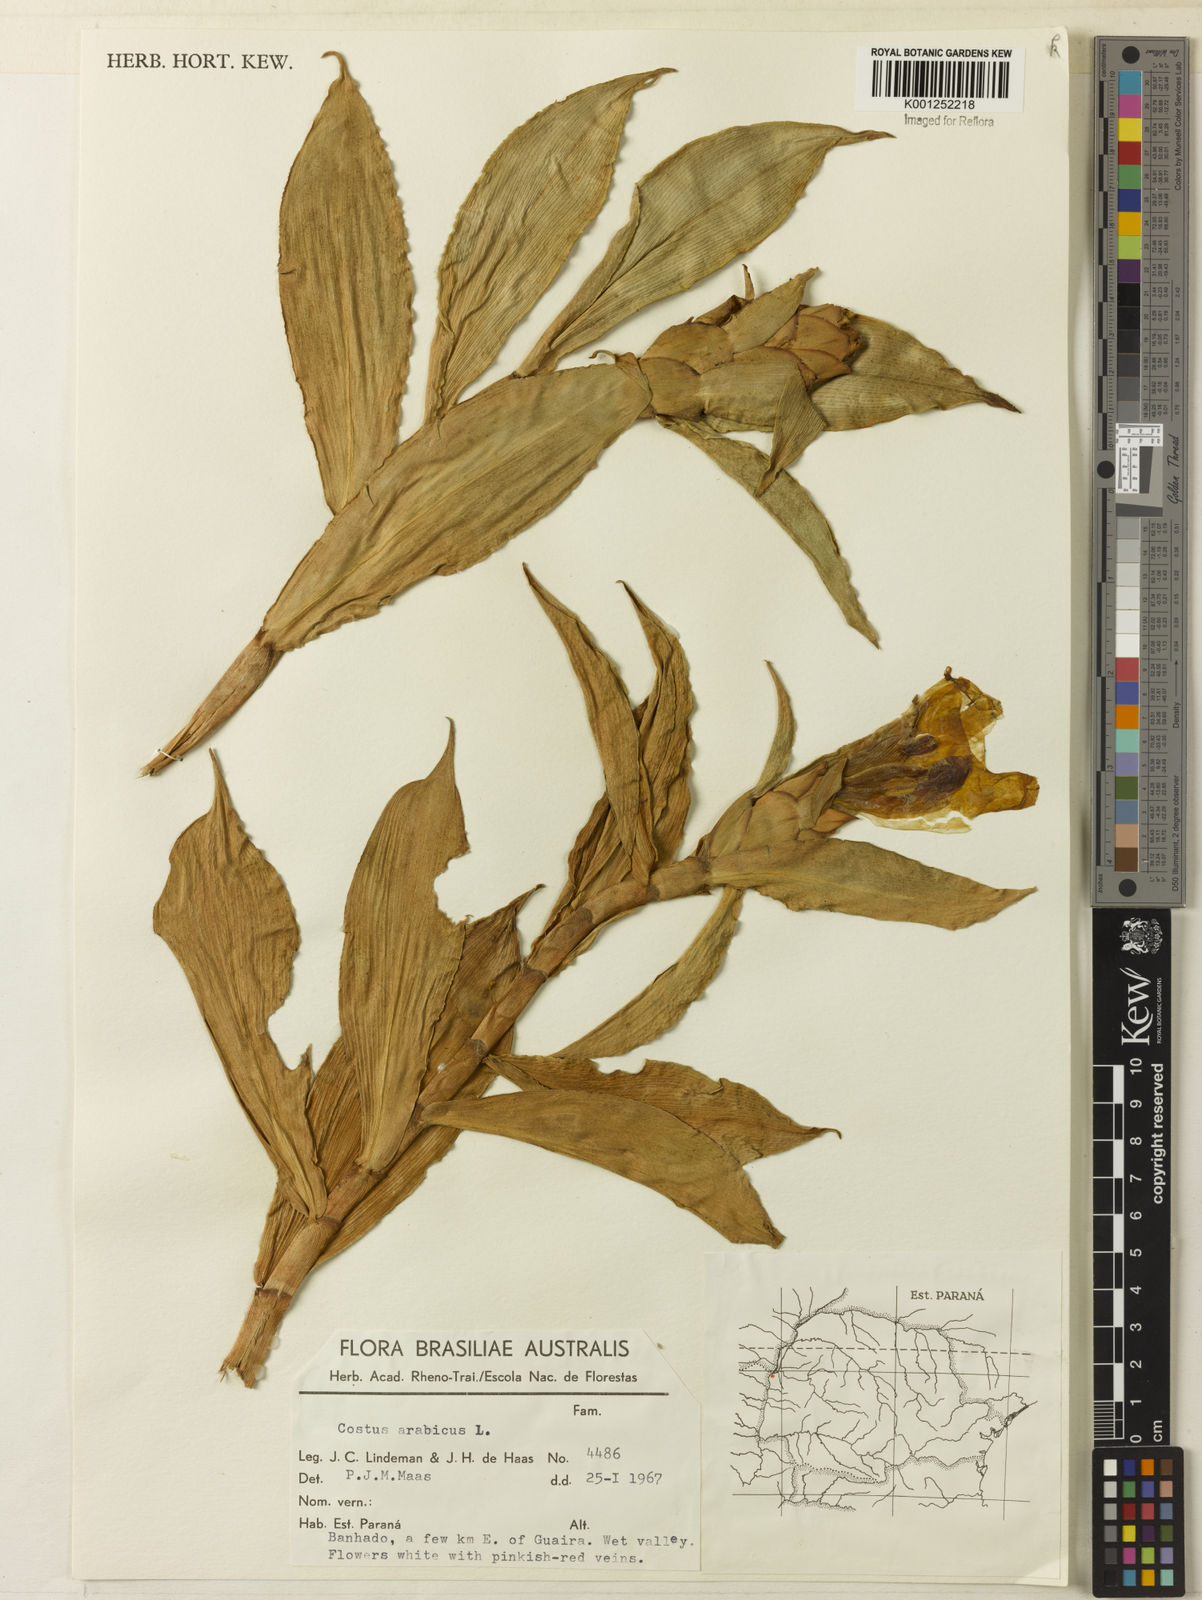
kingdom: Plantae
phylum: Tracheophyta
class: Liliopsida
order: Zingiberales
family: Costaceae
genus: Costus
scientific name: Costus arabicus
